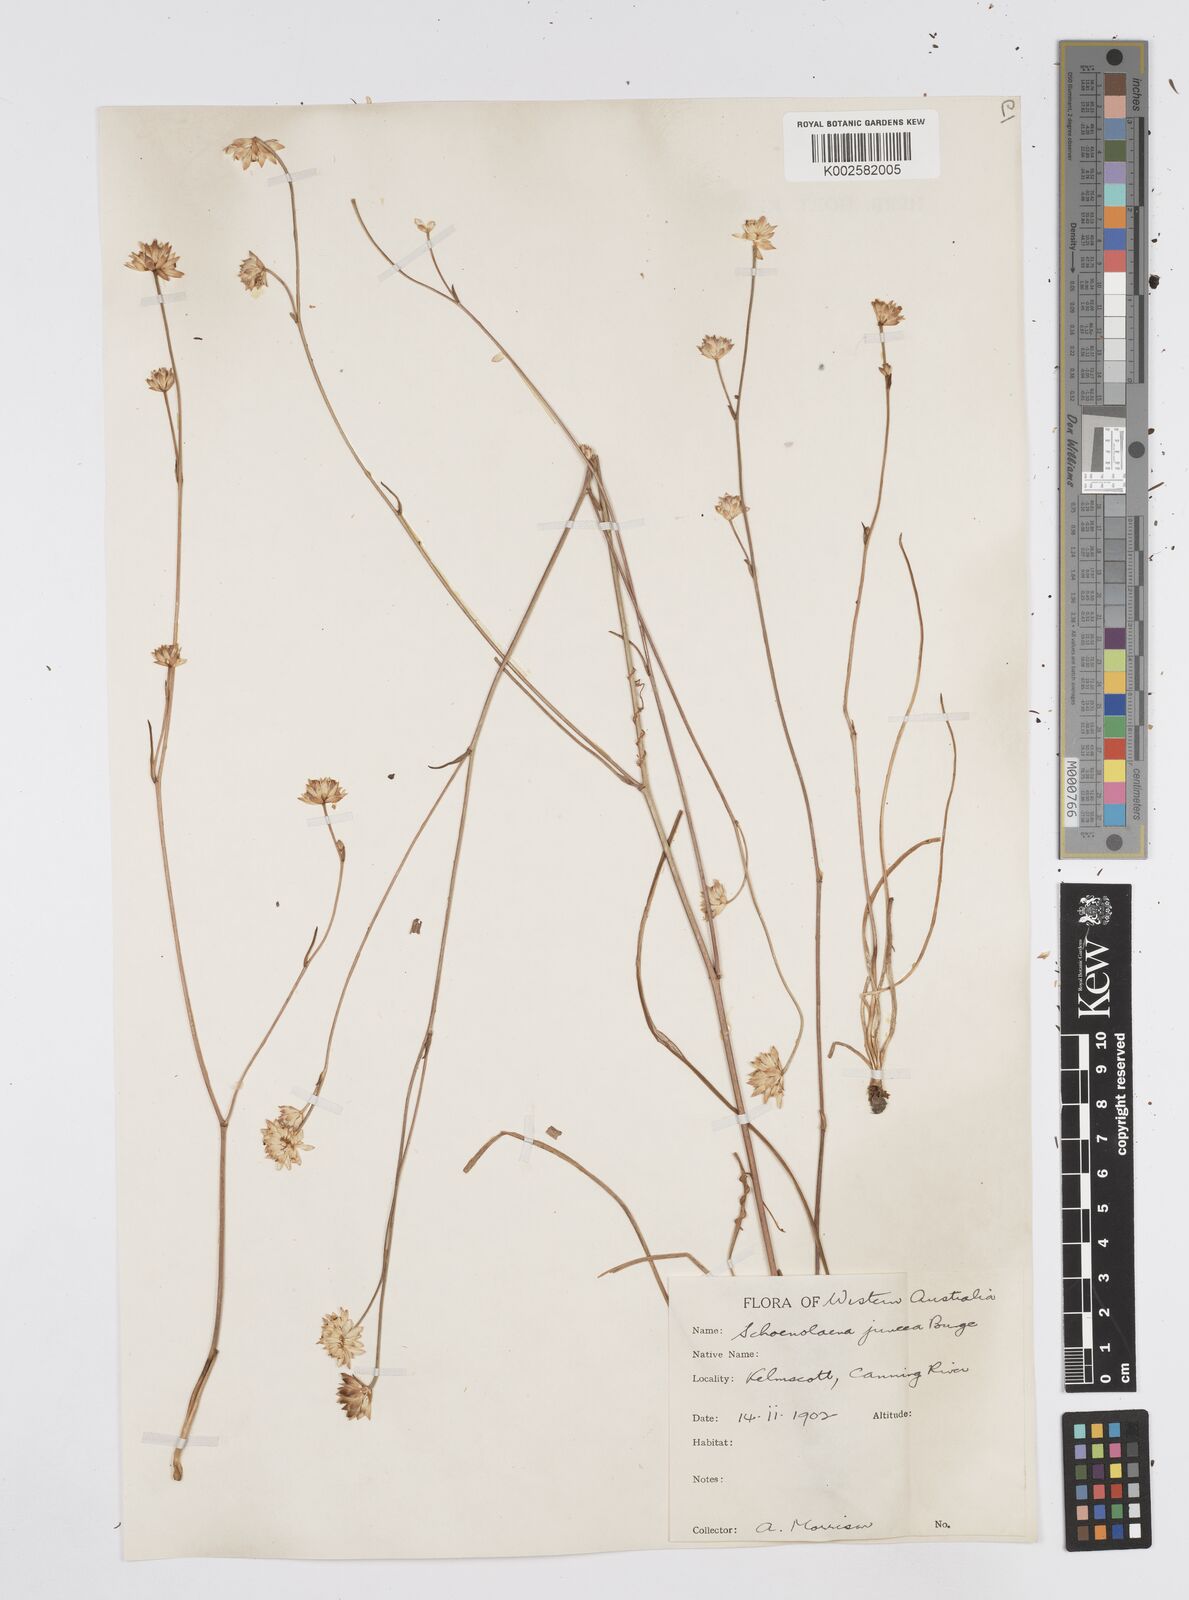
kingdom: Plantae
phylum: Tracheophyta
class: Magnoliopsida
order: Apiales
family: Apiaceae
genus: Schoenolaena
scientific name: Schoenolaena juncea
